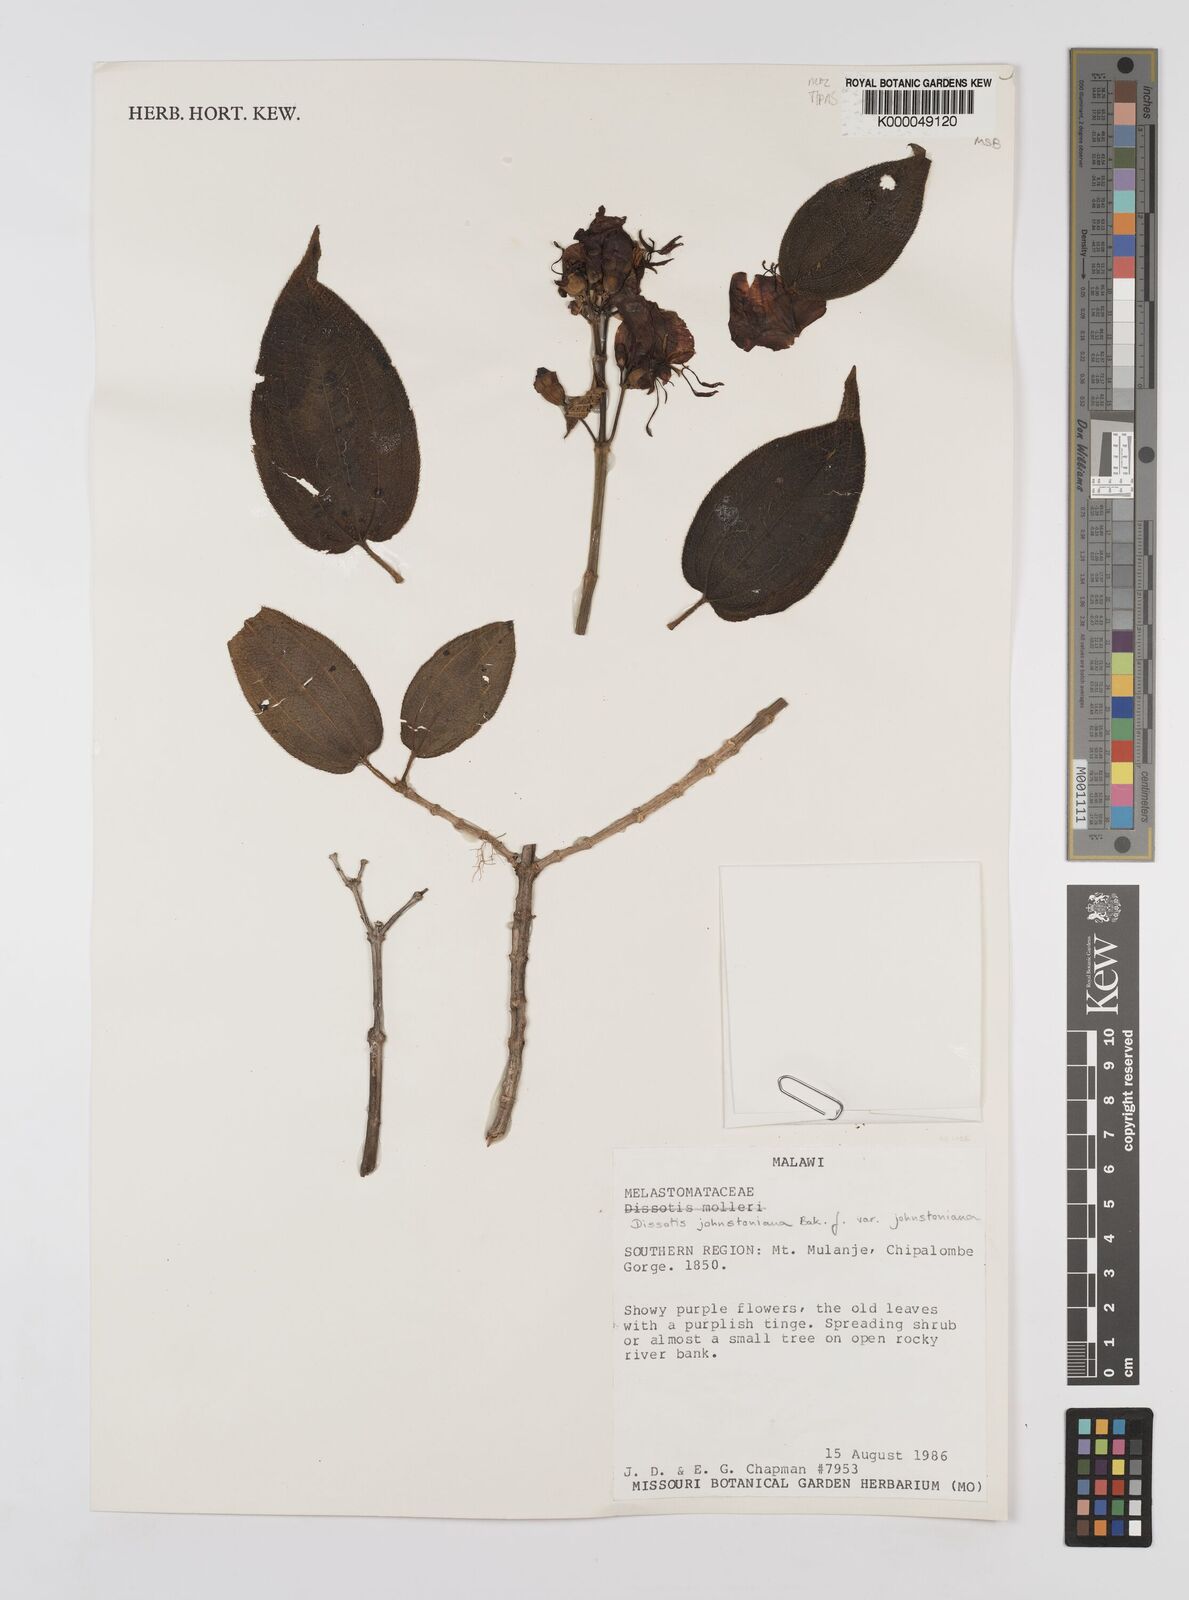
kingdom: Plantae
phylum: Tracheophyta
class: Magnoliopsida
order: Myrtales
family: Melastomataceae
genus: Dissotidendron
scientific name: Dissotidendron johnstonianum
